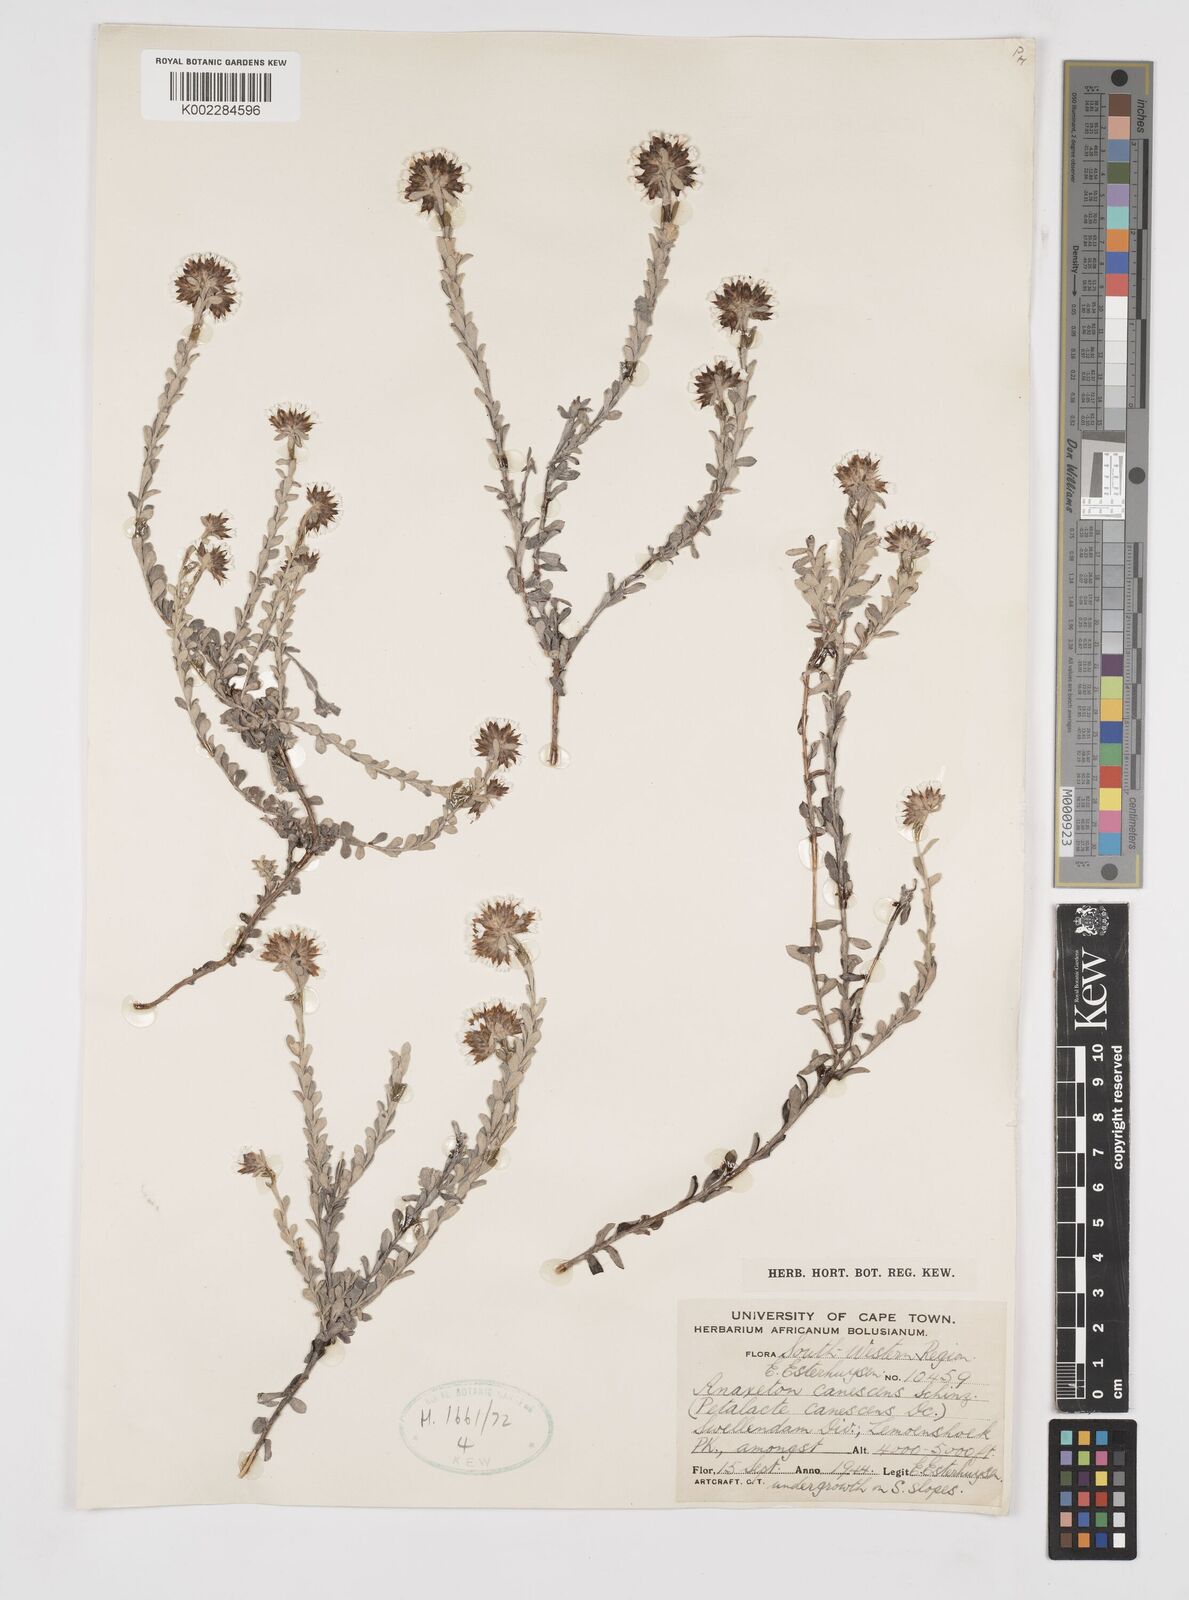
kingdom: Plantae
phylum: Tracheophyta
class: Magnoliopsida
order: Asterales
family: Asteraceae
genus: Langebergia
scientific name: Langebergia canescens
